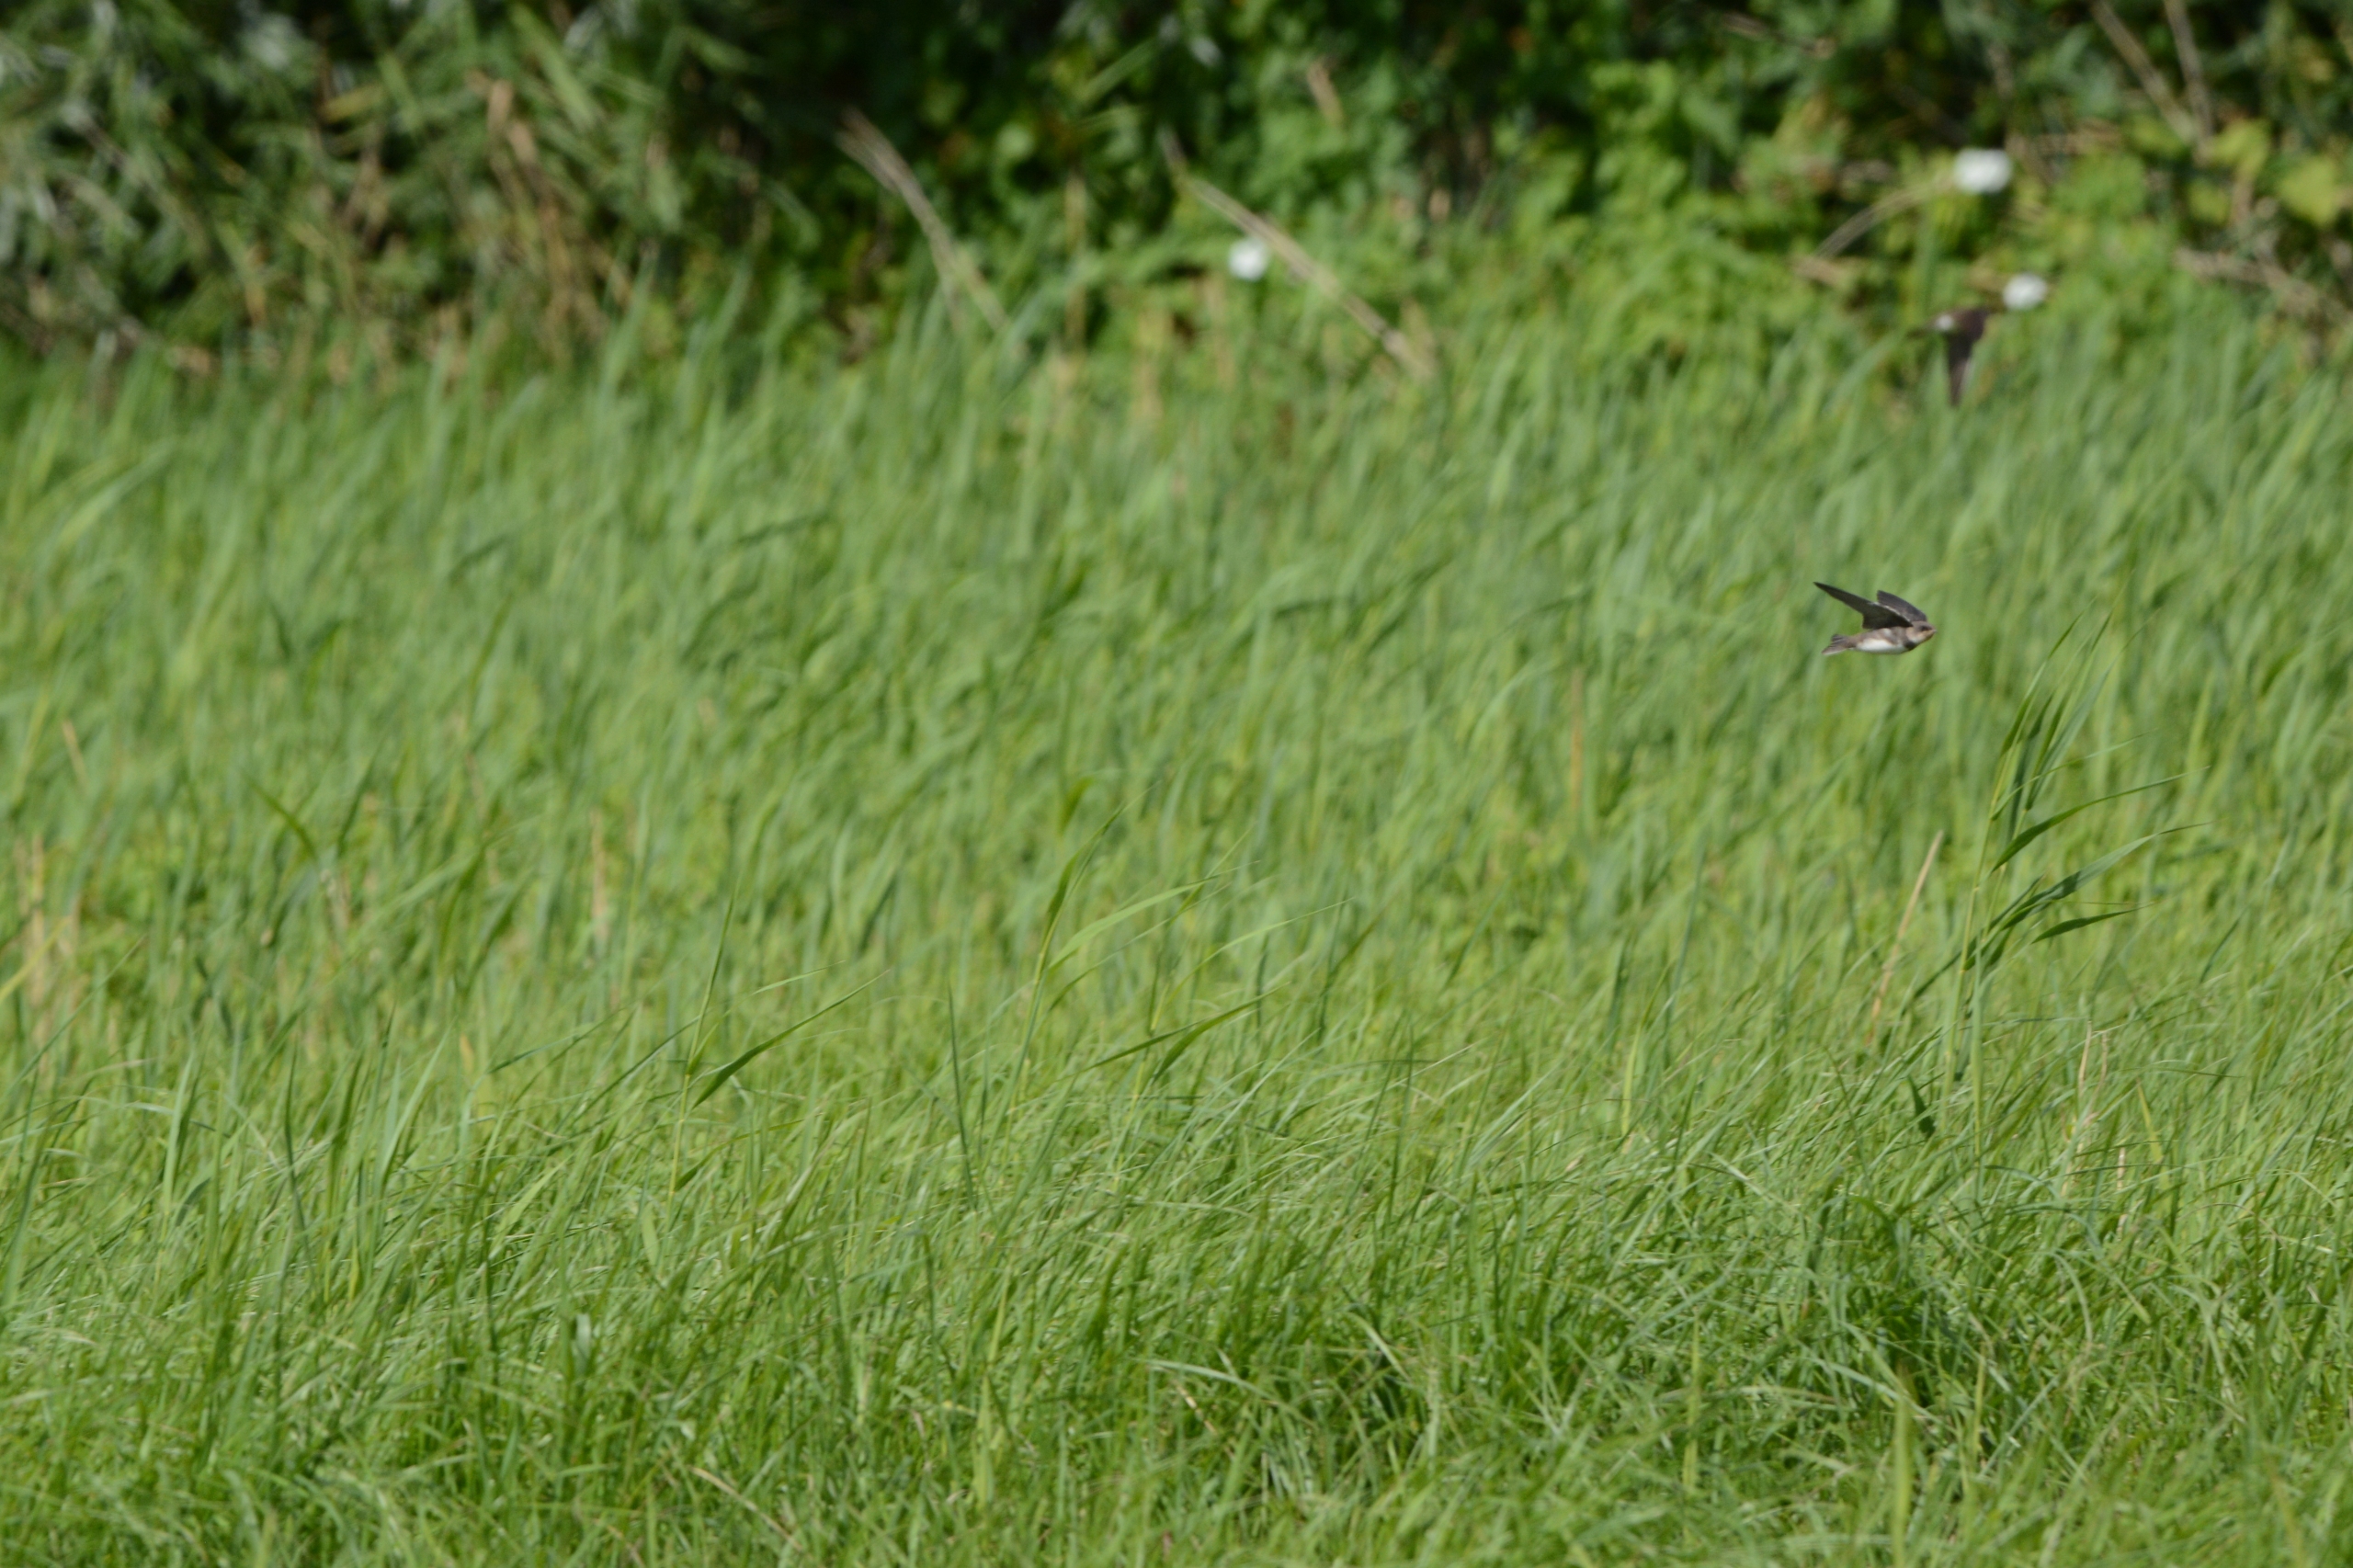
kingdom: Animalia
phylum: Chordata
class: Aves
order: Passeriformes
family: Hirundinidae
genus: Riparia
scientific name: Riparia riparia
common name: Digesvale
